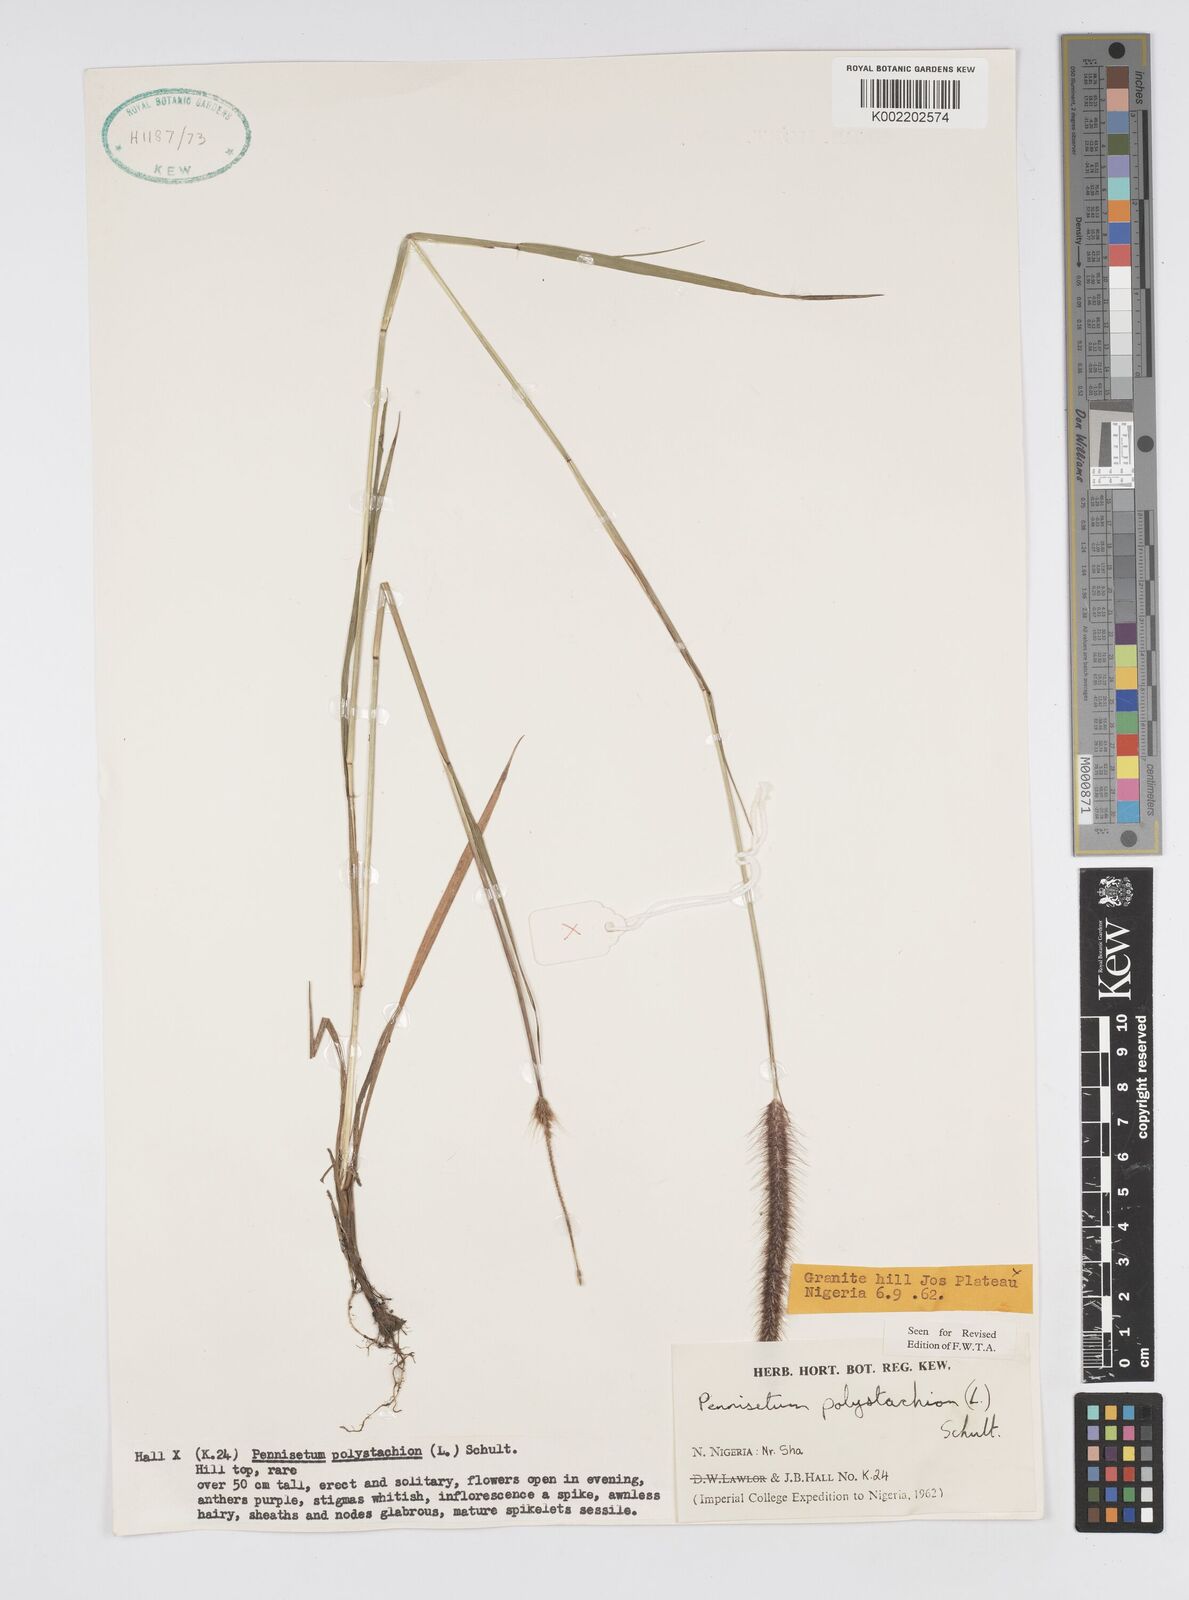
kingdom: Plantae
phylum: Tracheophyta
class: Liliopsida
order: Poales
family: Poaceae
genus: Setaria
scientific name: Setaria parviflora
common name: Knotroot bristle-grass
